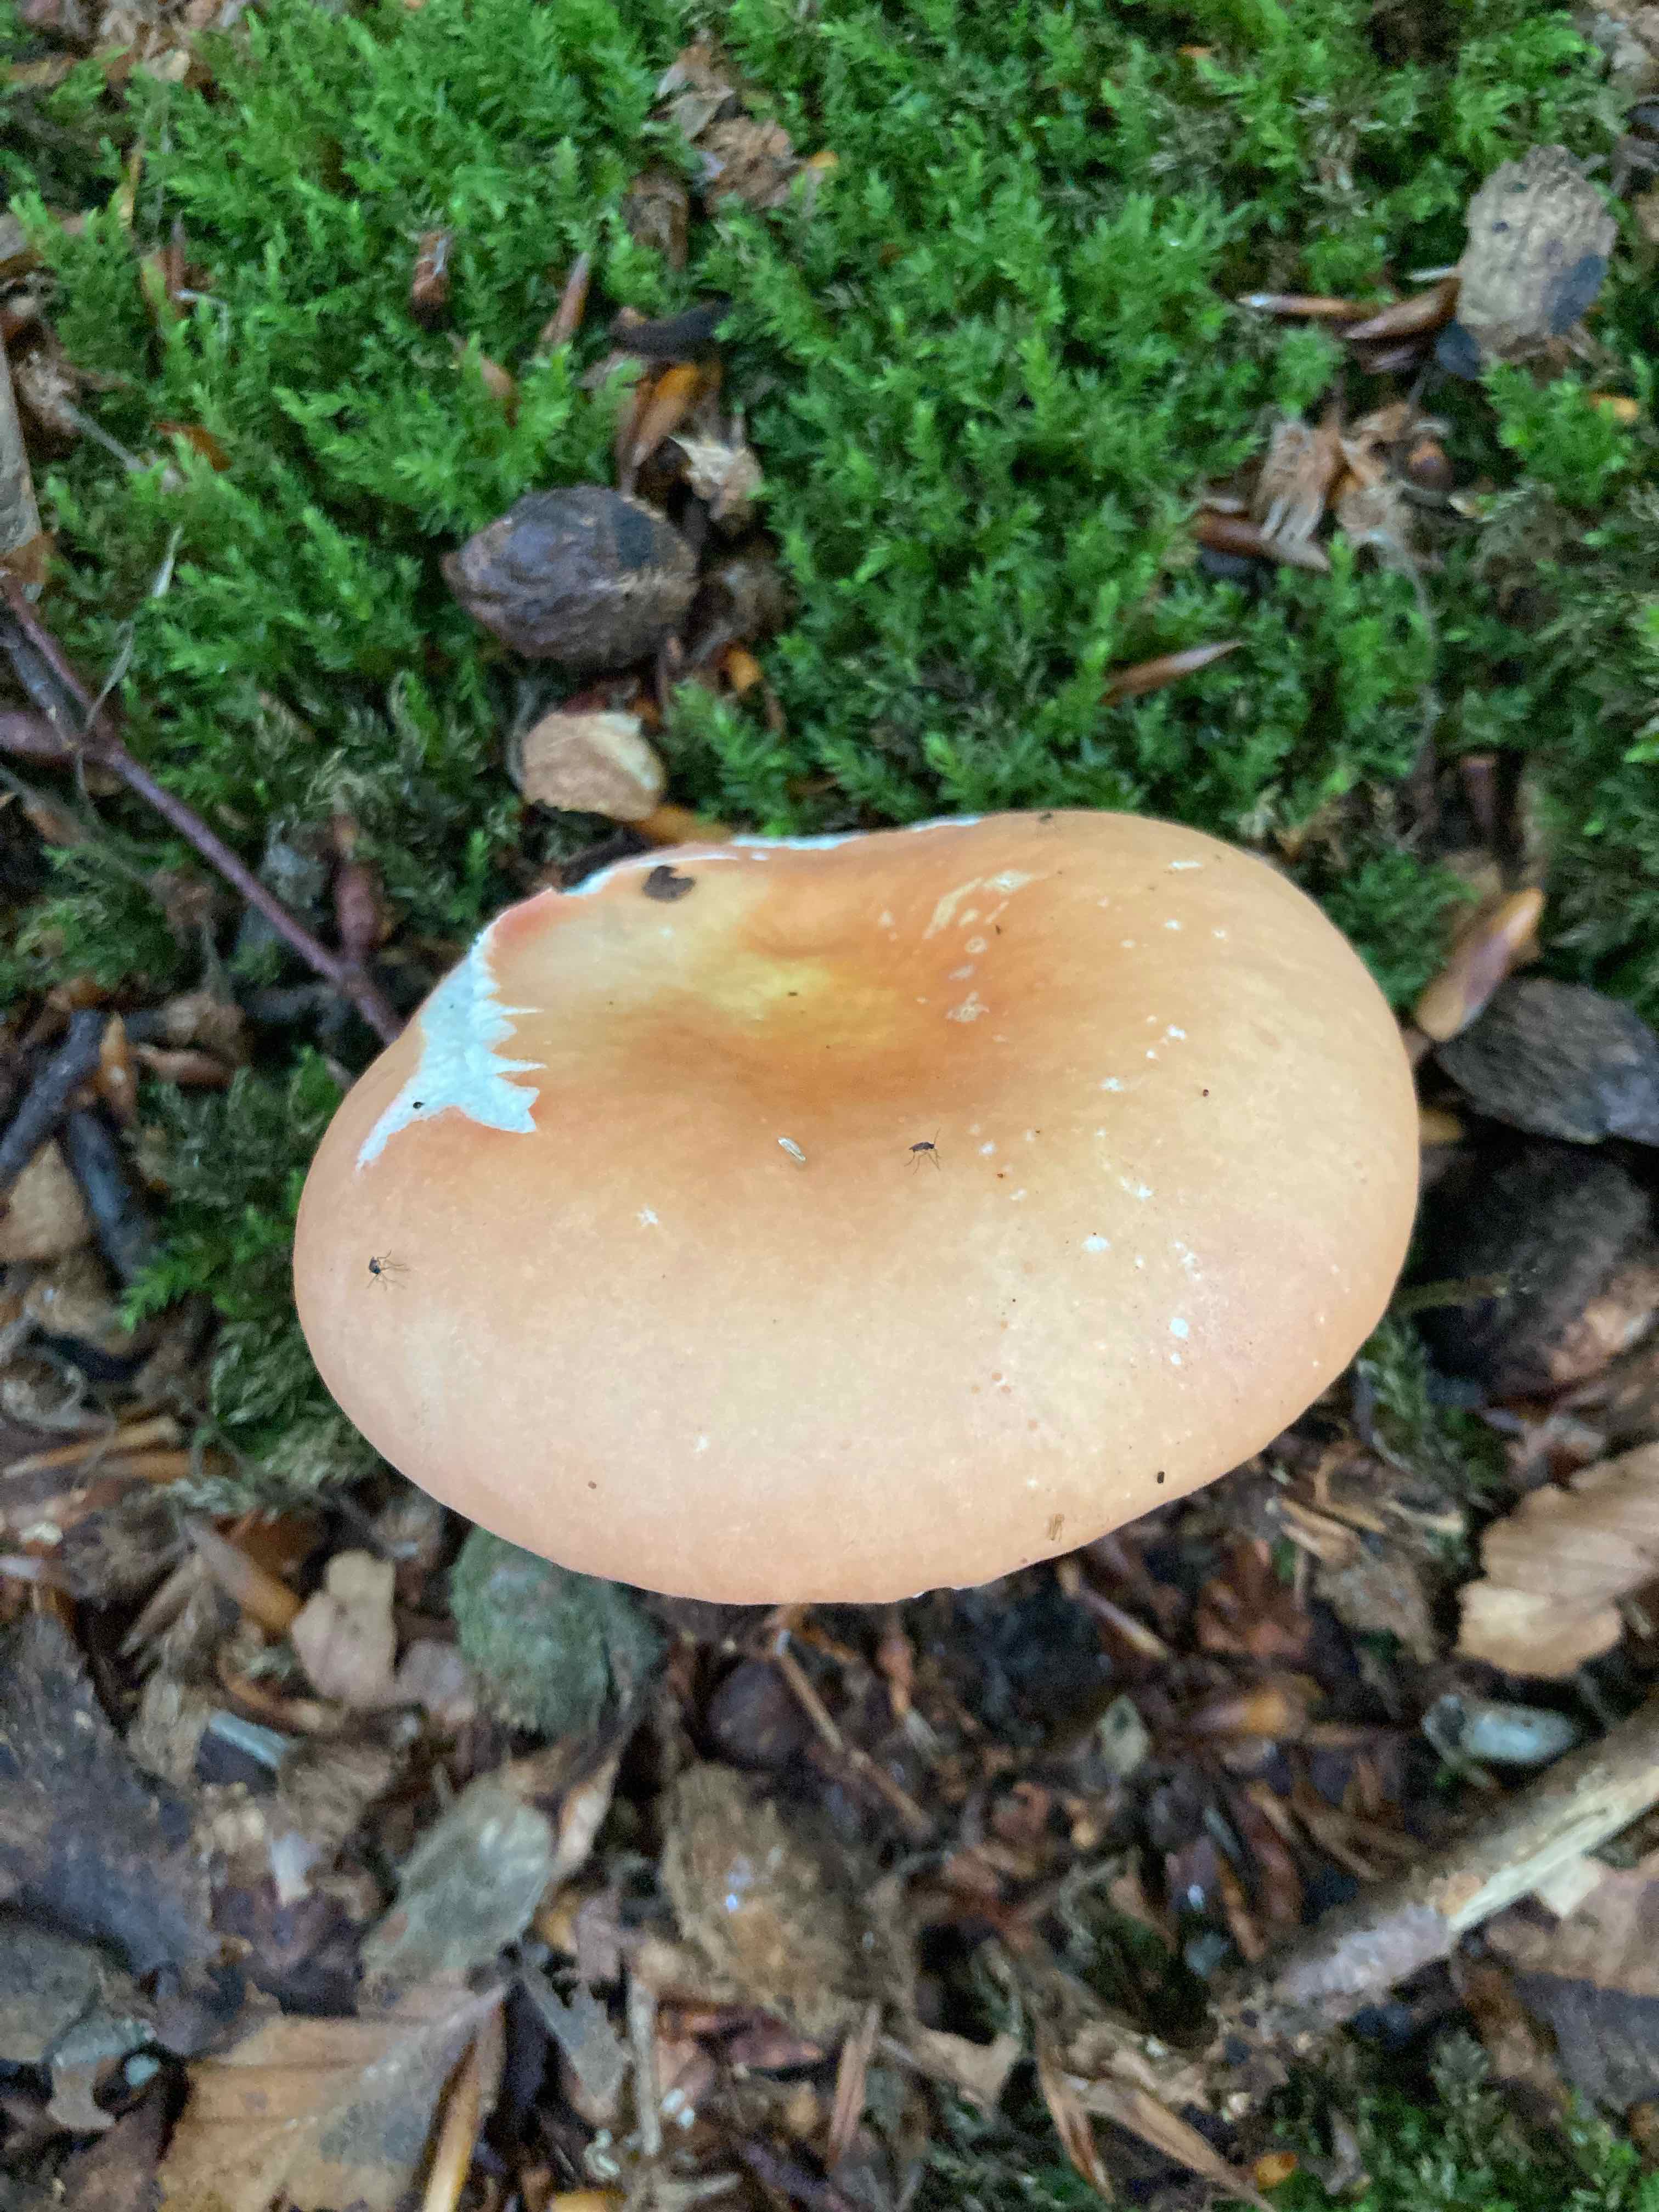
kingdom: Fungi
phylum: Basidiomycota
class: Agaricomycetes
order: Russulales
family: Russulaceae
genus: Russula
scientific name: Russula rosea
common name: fastkødet skørhat
